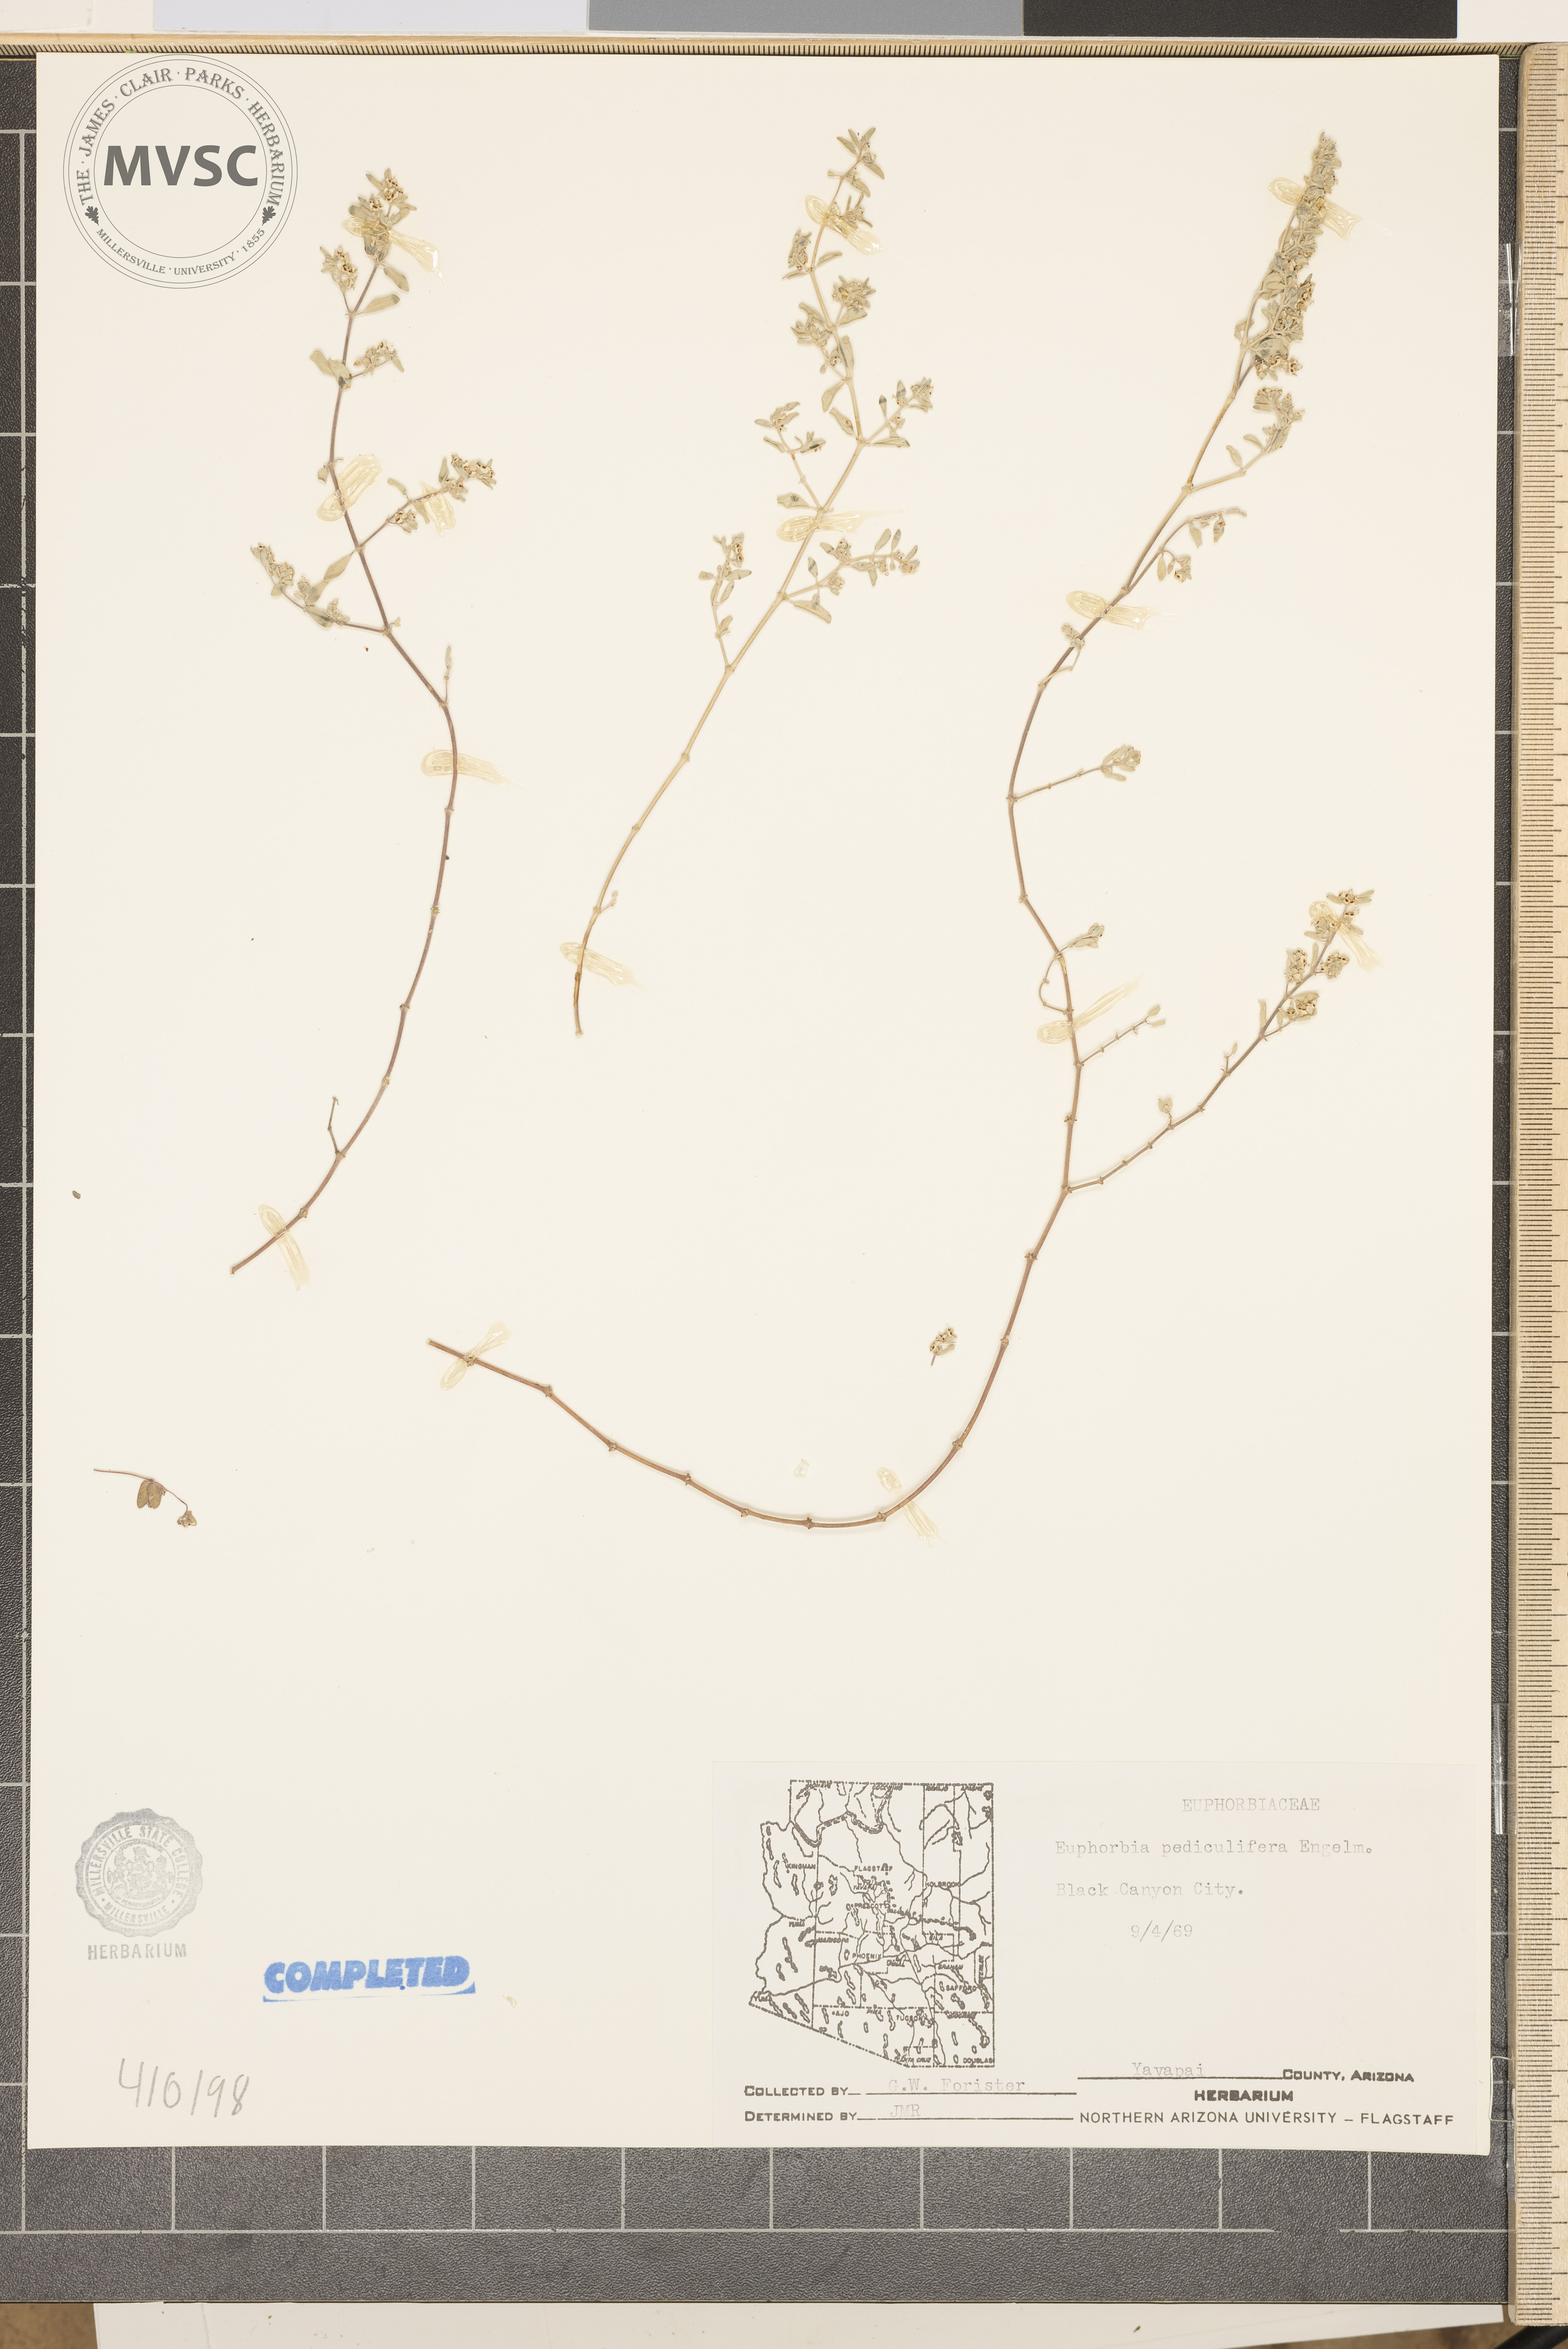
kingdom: Plantae
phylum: Tracheophyta
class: Magnoliopsida
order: Malpighiales
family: Euphorbiaceae
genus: Euphorbia
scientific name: Euphorbia pediculifera
